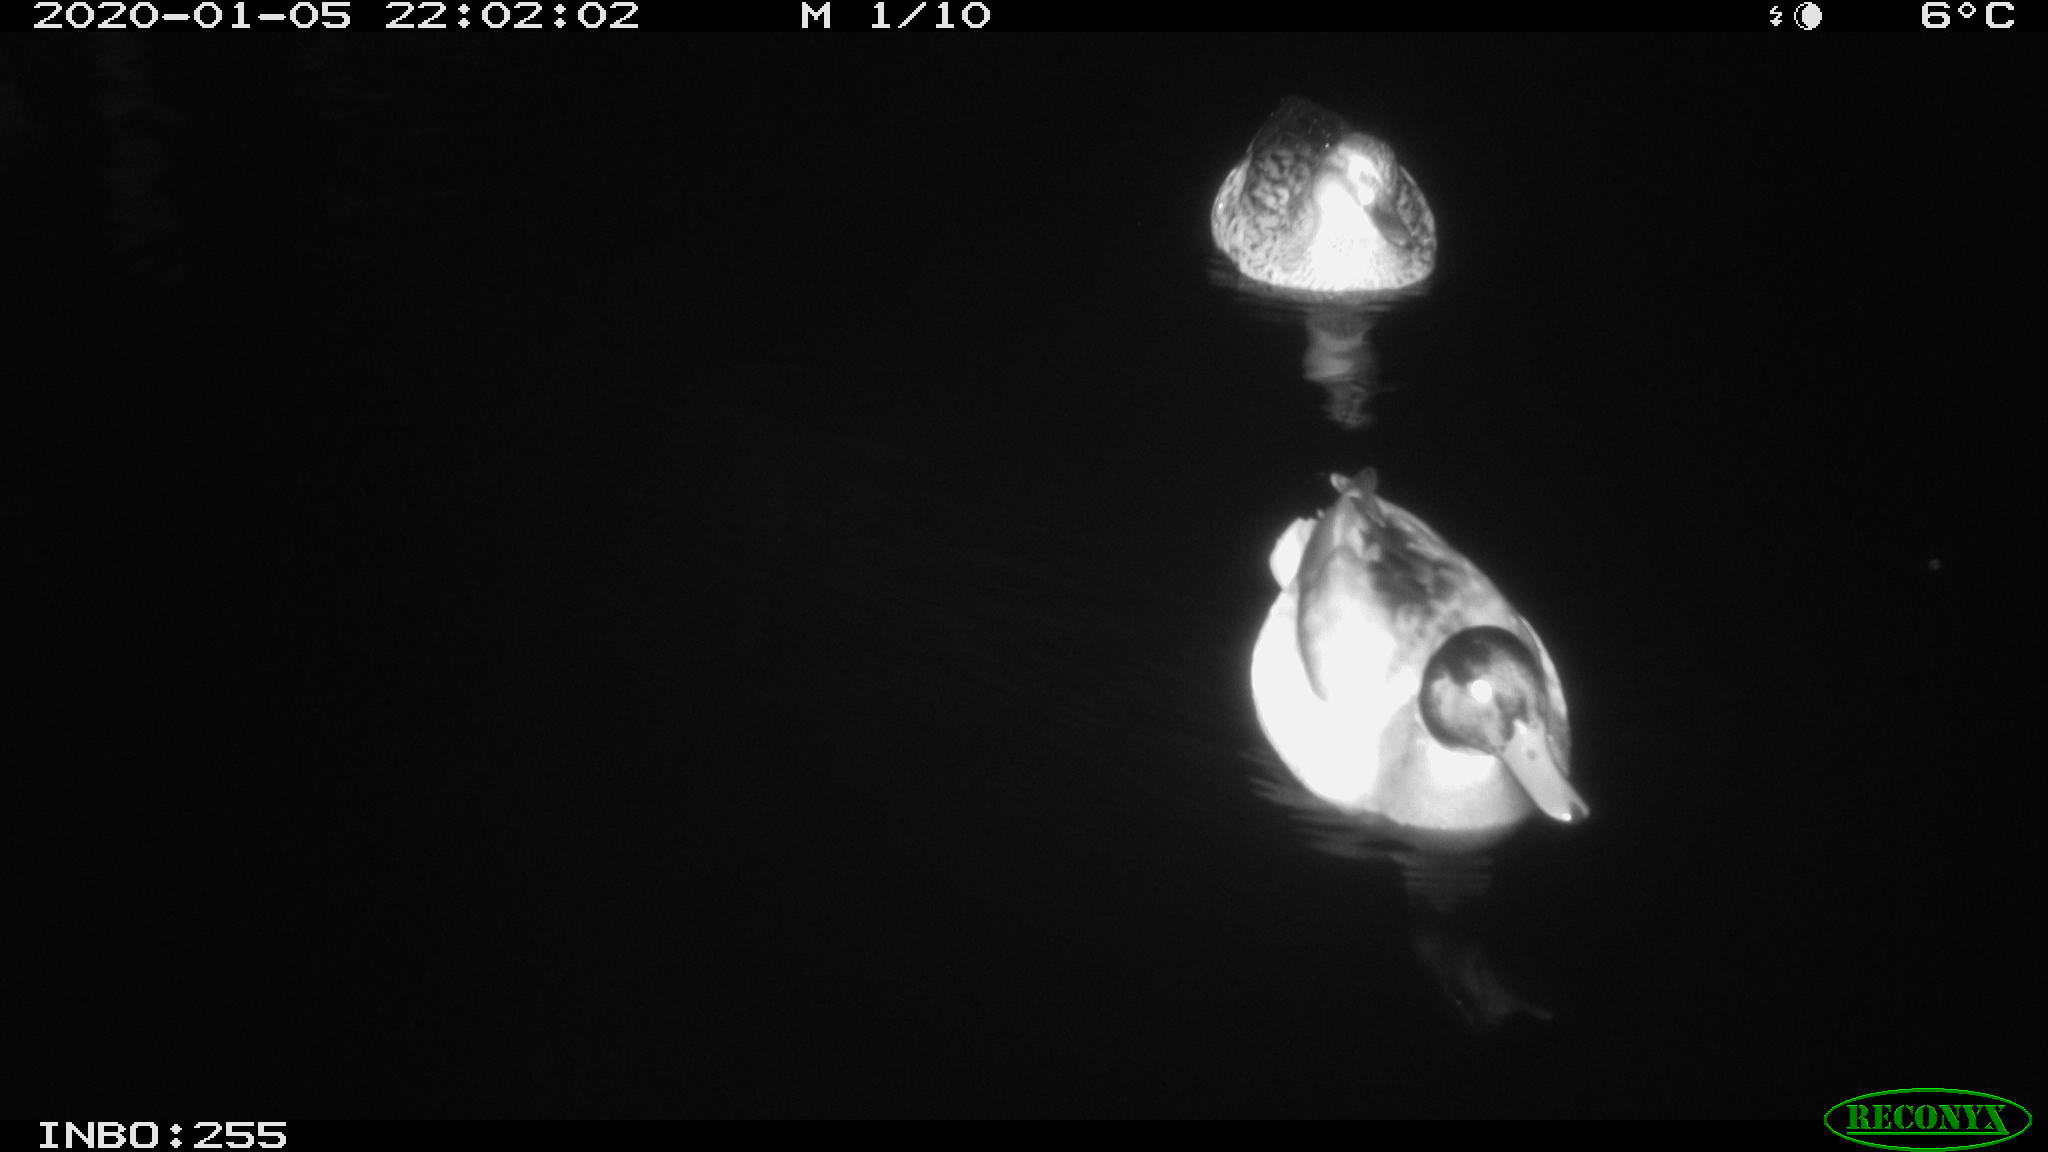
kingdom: Animalia
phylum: Chordata
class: Aves
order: Anseriformes
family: Anatidae
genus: Anas
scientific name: Anas platyrhynchos
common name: Mallard
